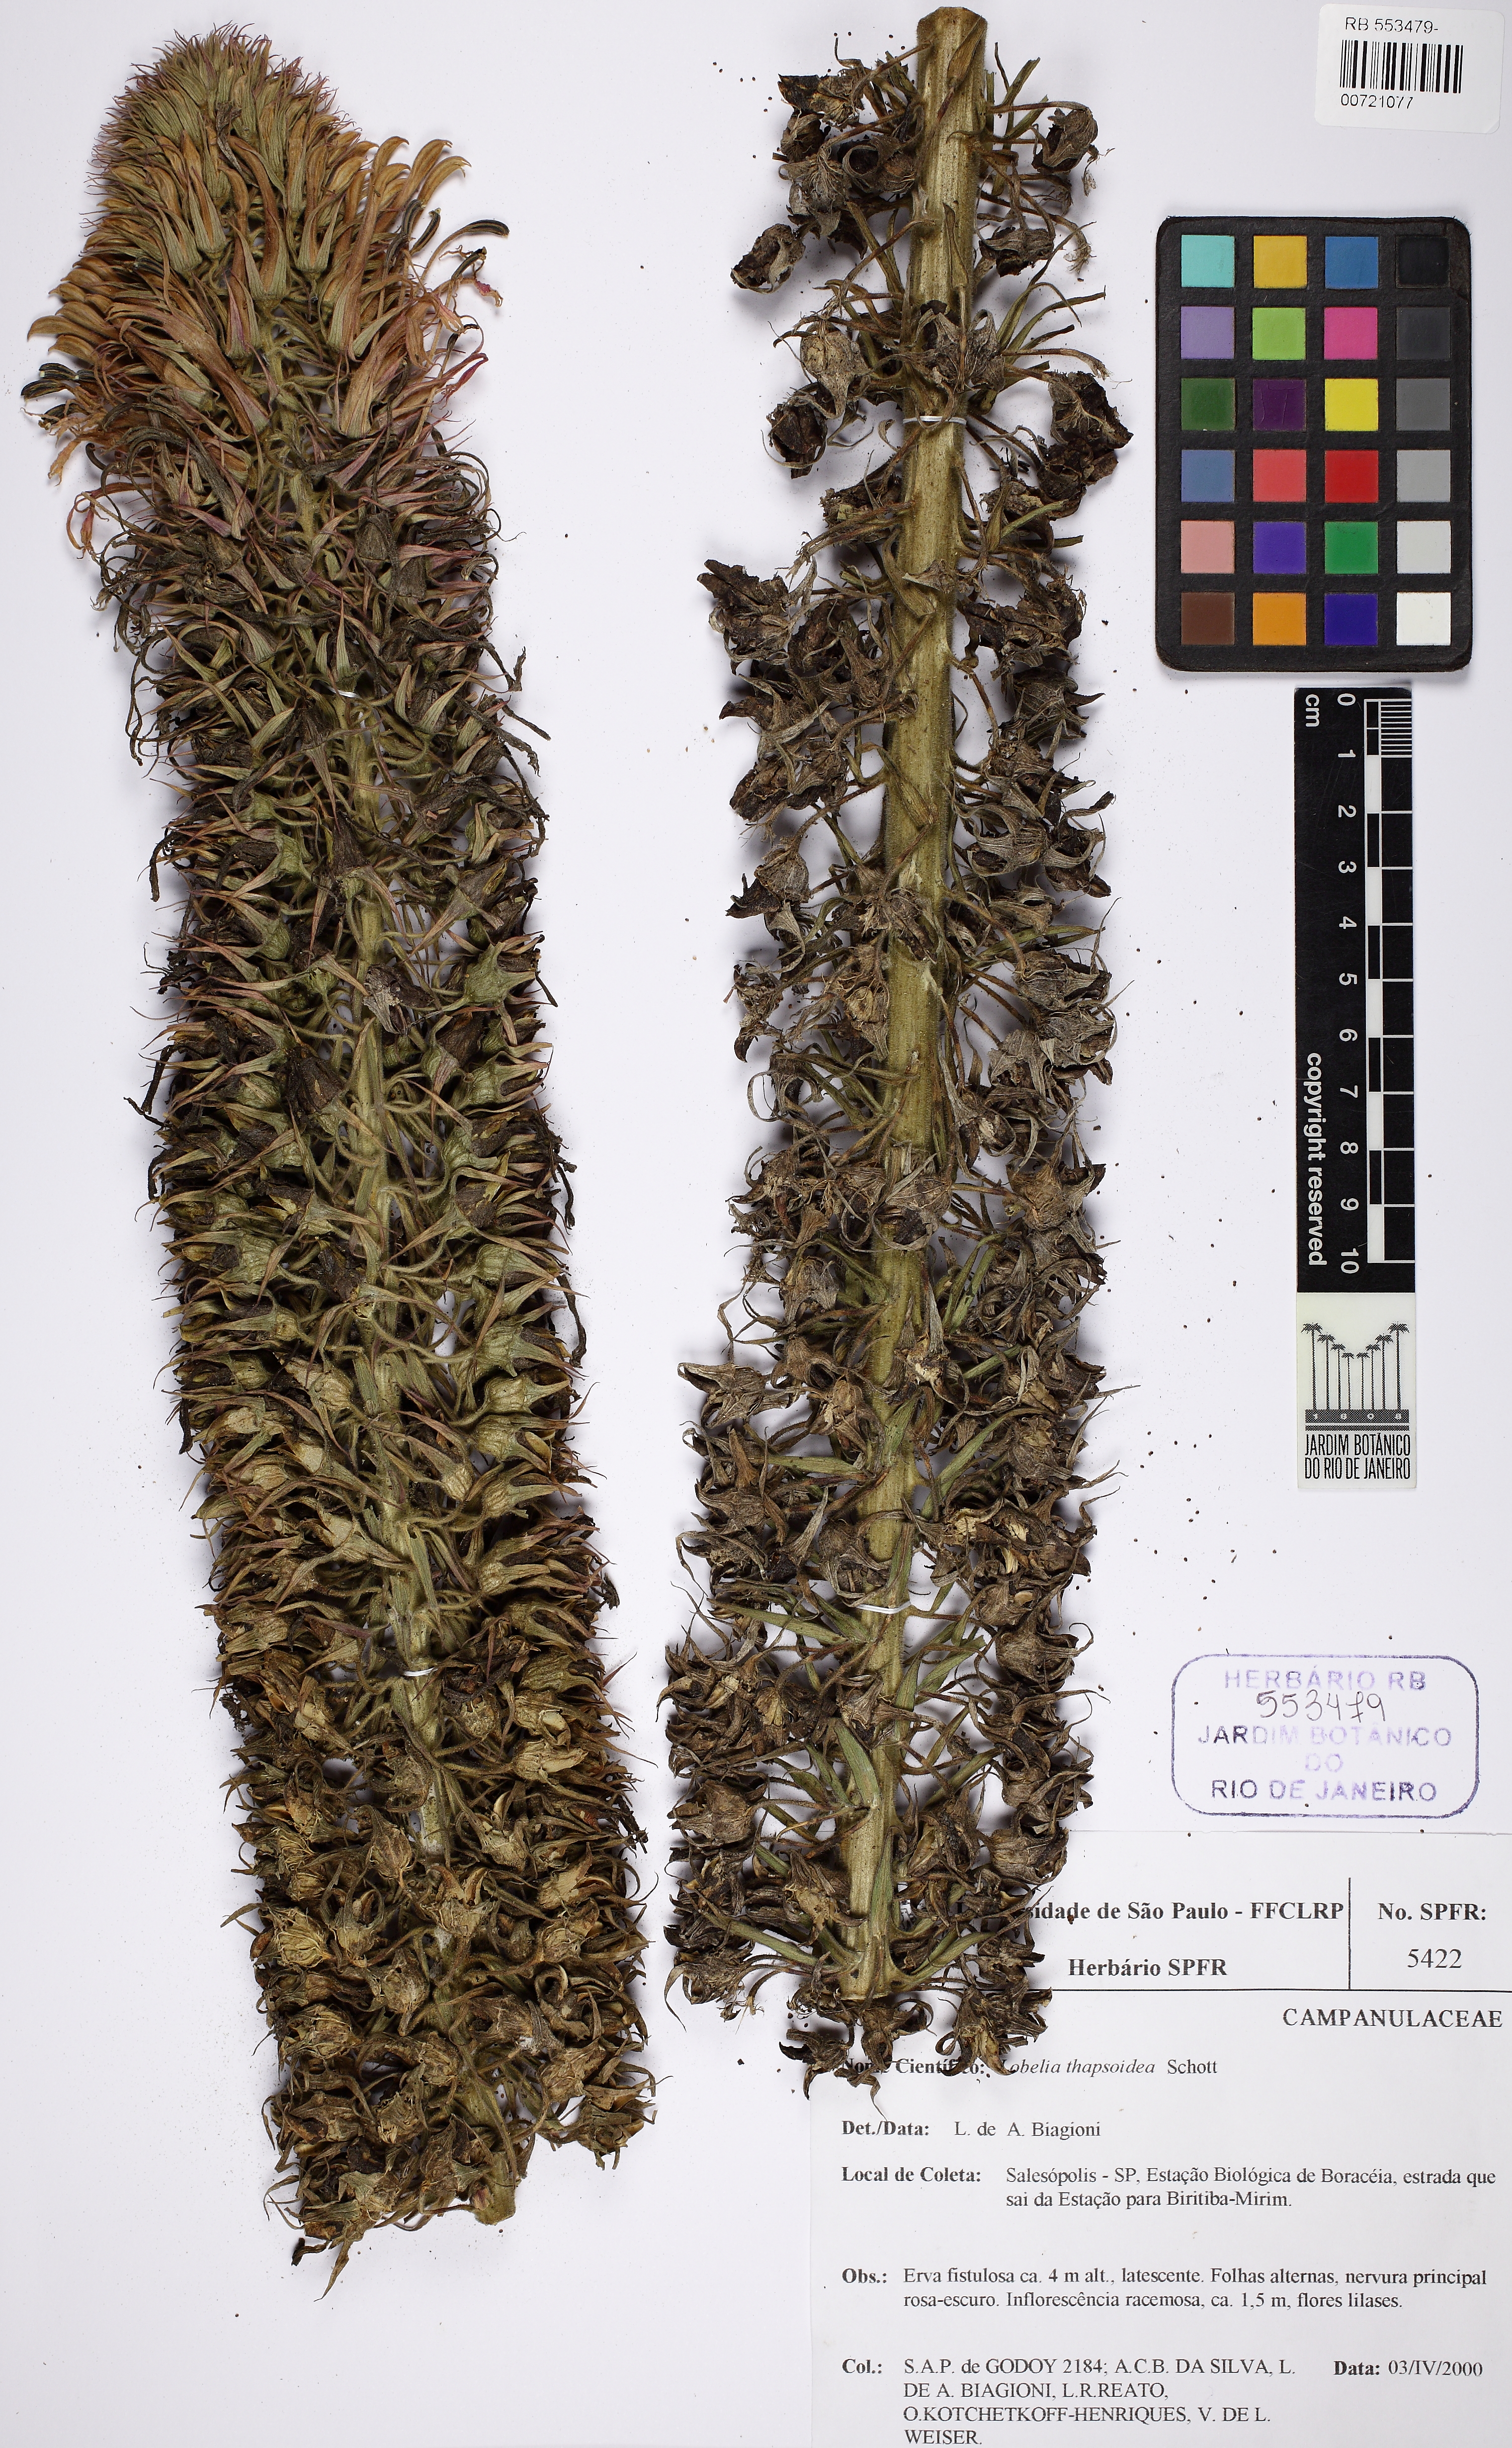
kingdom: Plantae
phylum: Tracheophyta
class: Magnoliopsida
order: Asterales
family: Campanulaceae
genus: Lobelia
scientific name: Lobelia thapsoidea
